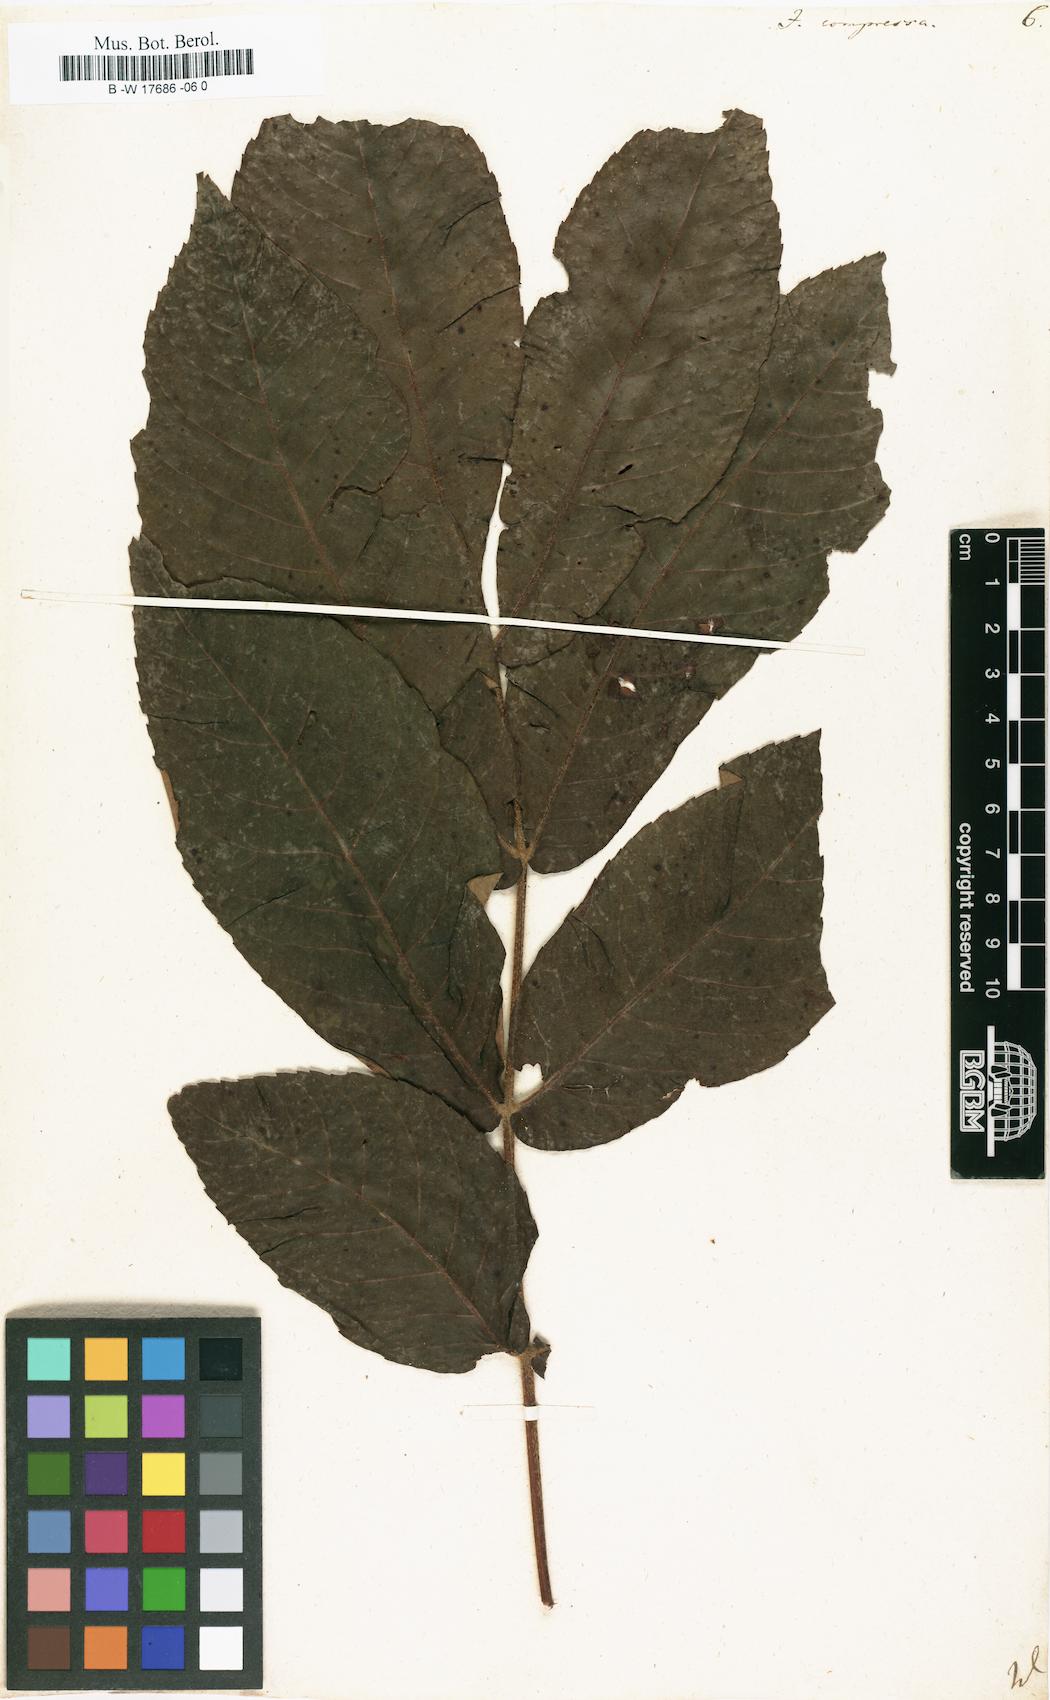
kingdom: Plantae
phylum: Tracheophyta
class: Magnoliopsida
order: Fagales
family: Juglandaceae
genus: Carya
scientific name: Carya cordiformis
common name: Bitternut hickory
